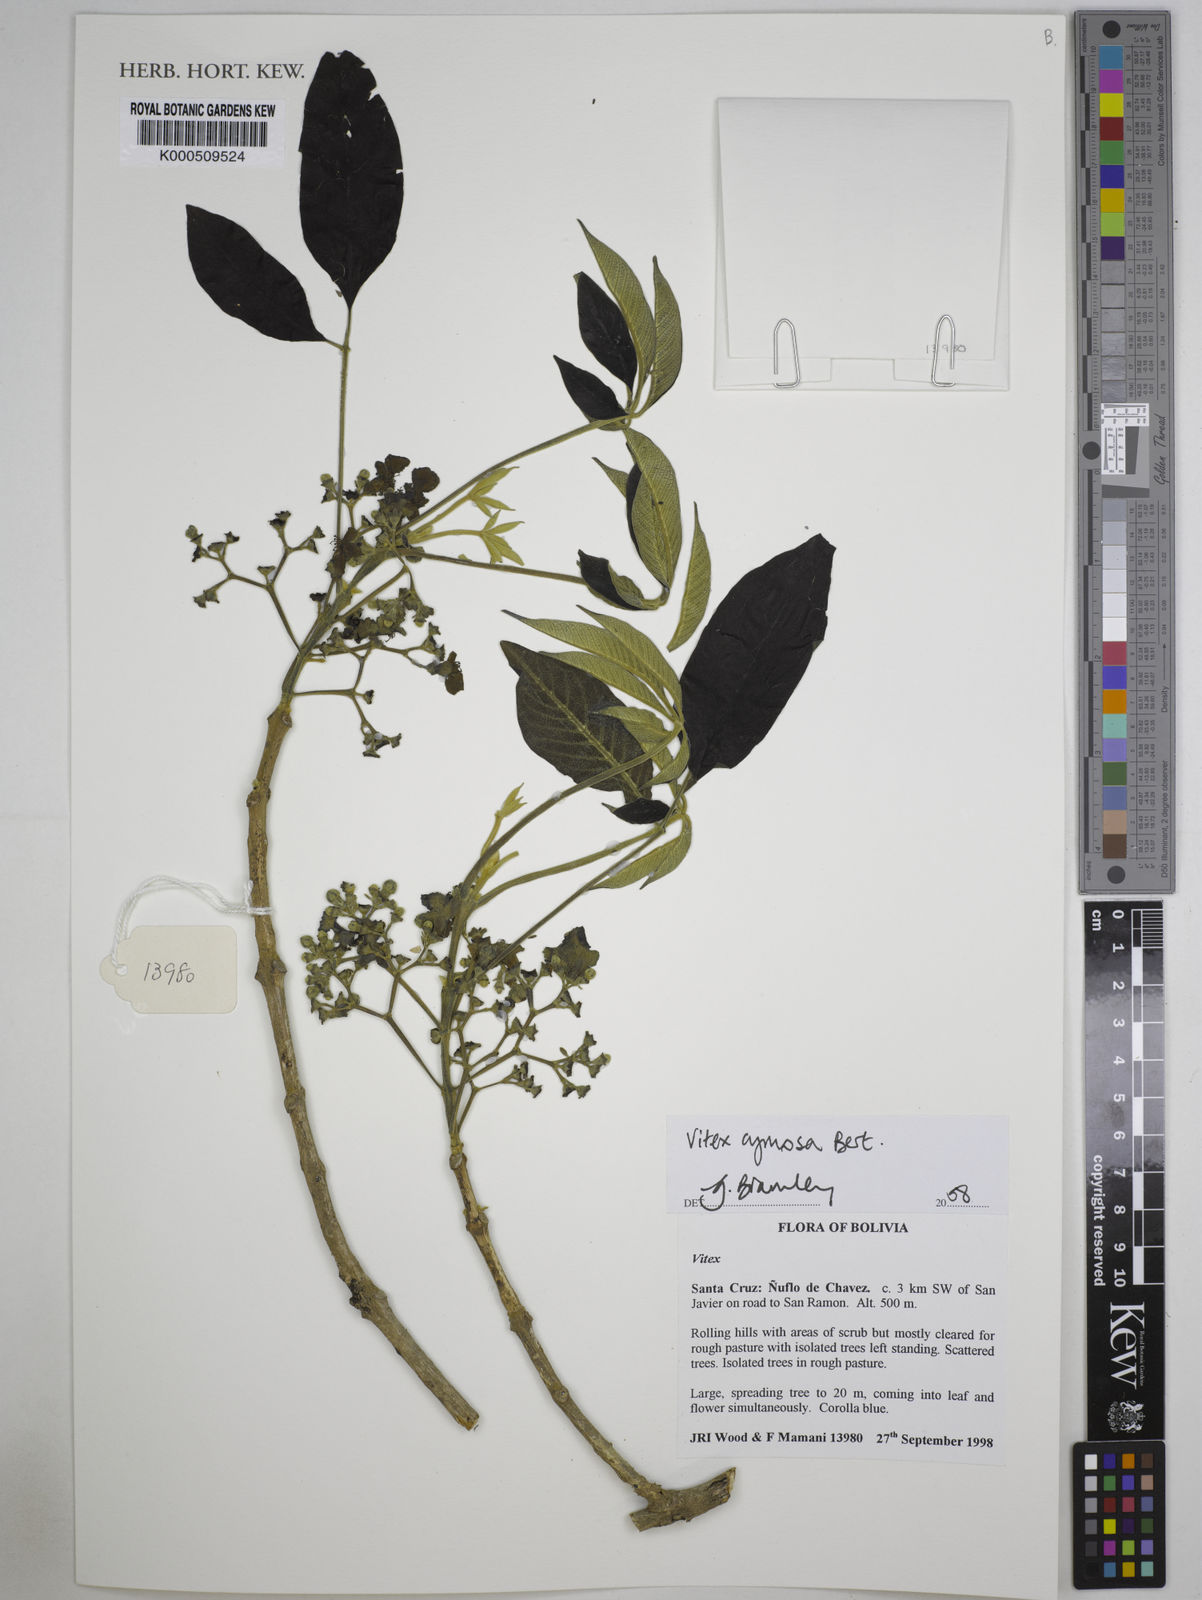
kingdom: Plantae
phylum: Tracheophyta
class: Magnoliopsida
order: Lamiales
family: Lamiaceae
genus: Vitex
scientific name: Vitex
